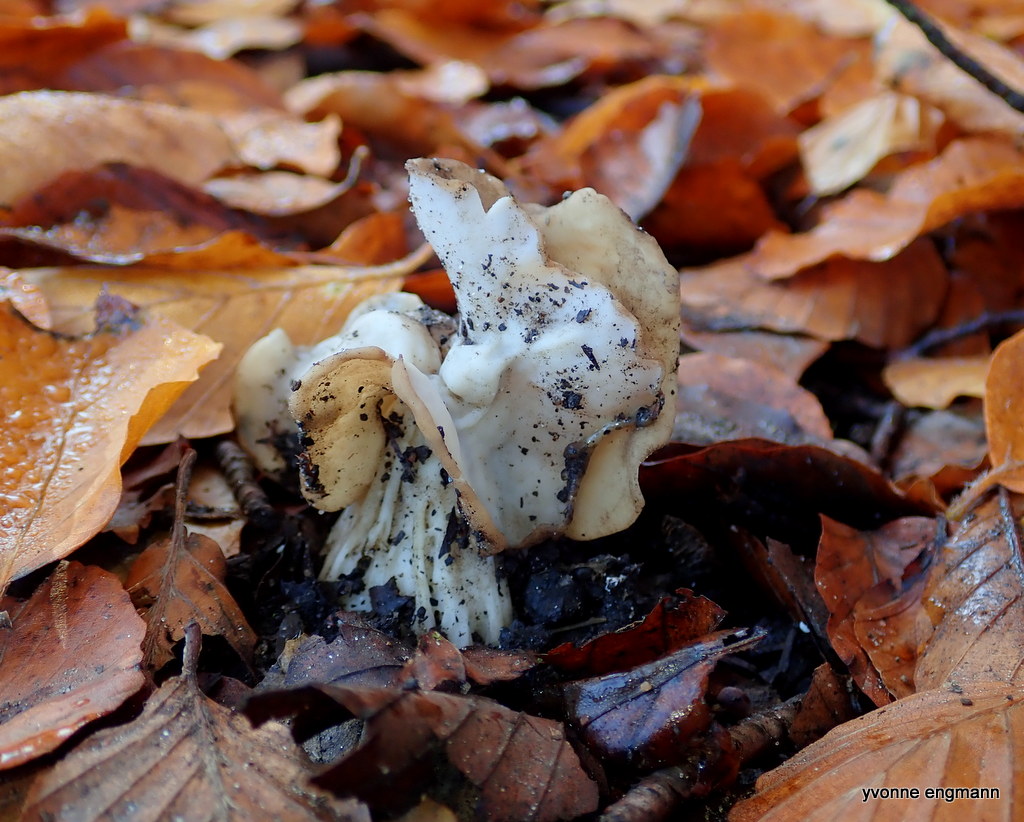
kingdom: Fungi
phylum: Ascomycota
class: Pezizomycetes
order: Pezizales
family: Helvellaceae
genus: Helvella
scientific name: Helvella crispa
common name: kruset foldhat
